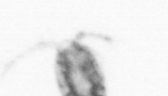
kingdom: Animalia
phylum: Arthropoda
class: Copepoda
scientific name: Copepoda
